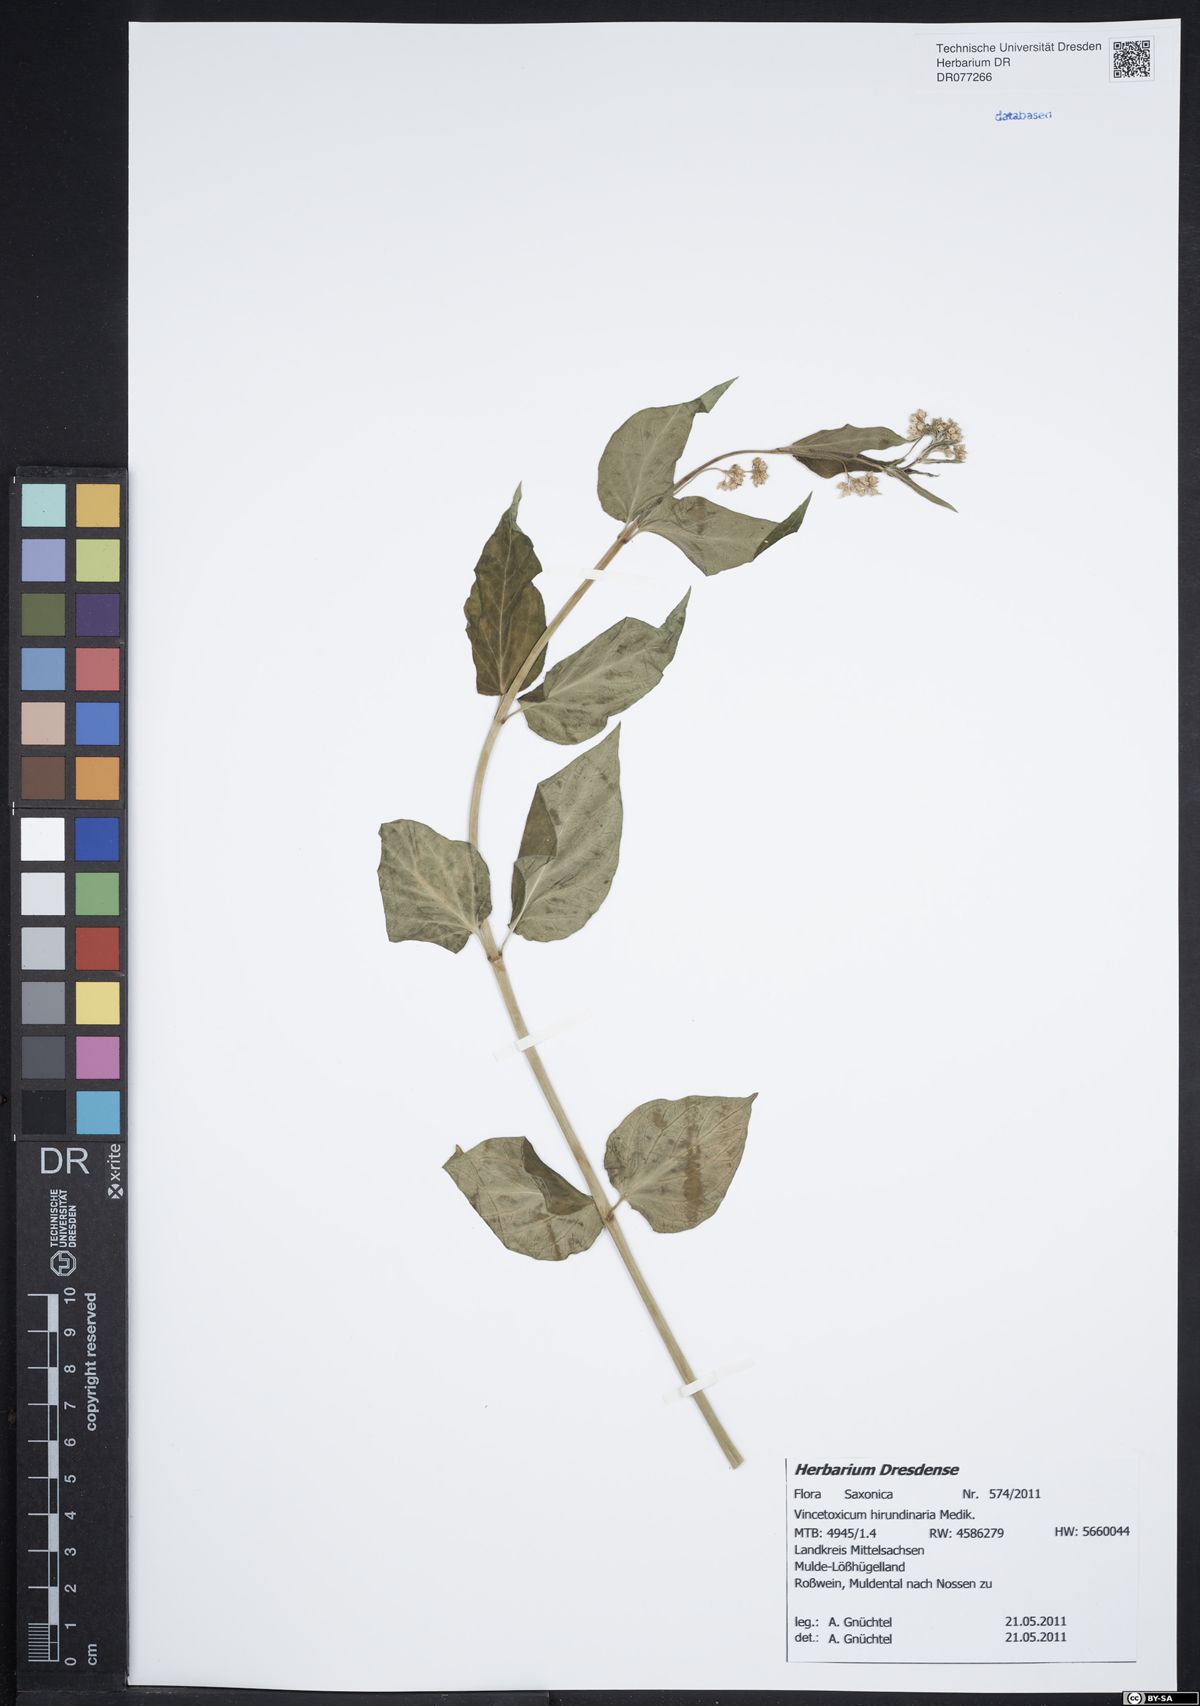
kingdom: Plantae
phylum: Tracheophyta
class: Magnoliopsida
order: Gentianales
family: Apocynaceae
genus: Vincetoxicum
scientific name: Vincetoxicum hirundinaria
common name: White swallowwort
